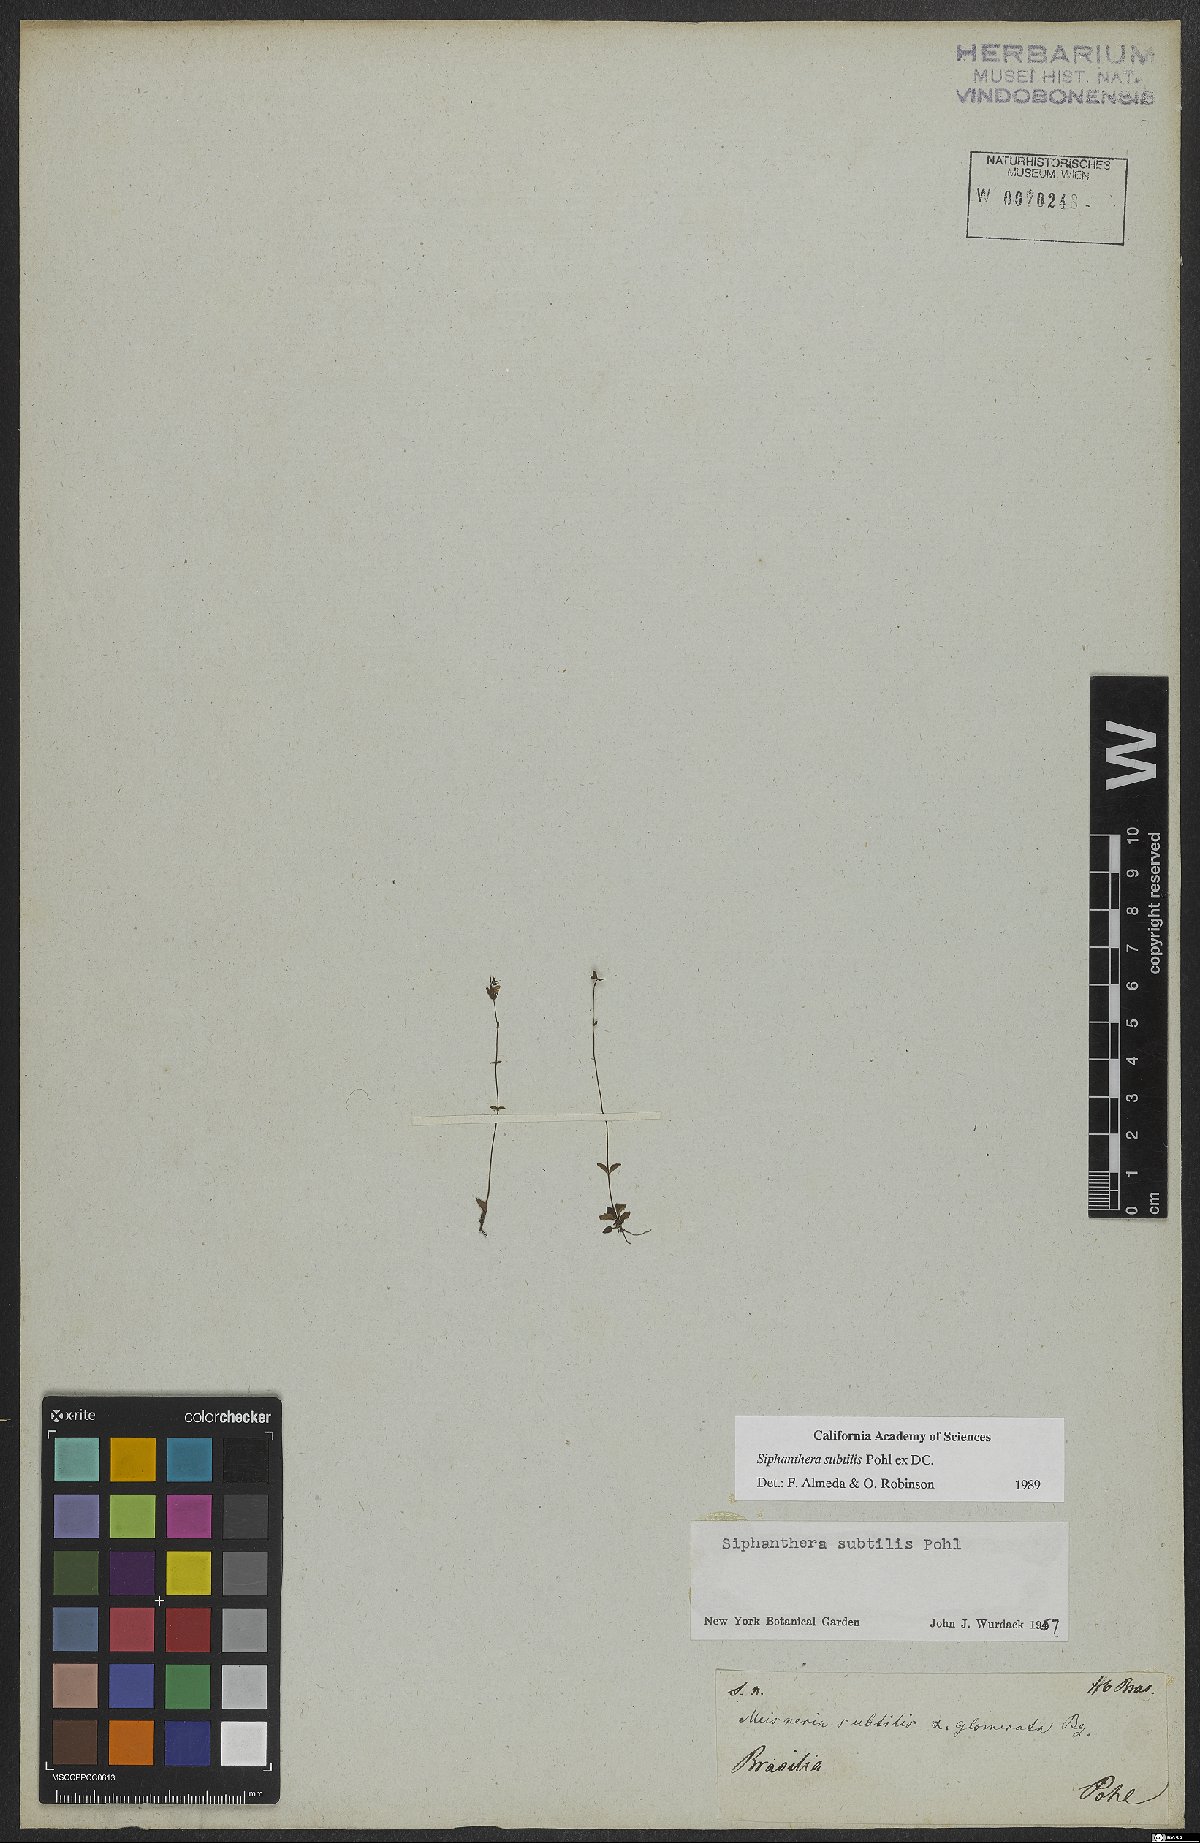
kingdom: Plantae
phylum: Tracheophyta
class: Magnoliopsida
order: Myrtales
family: Melastomataceae
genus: Siphanthera
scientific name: Siphanthera subtilis
